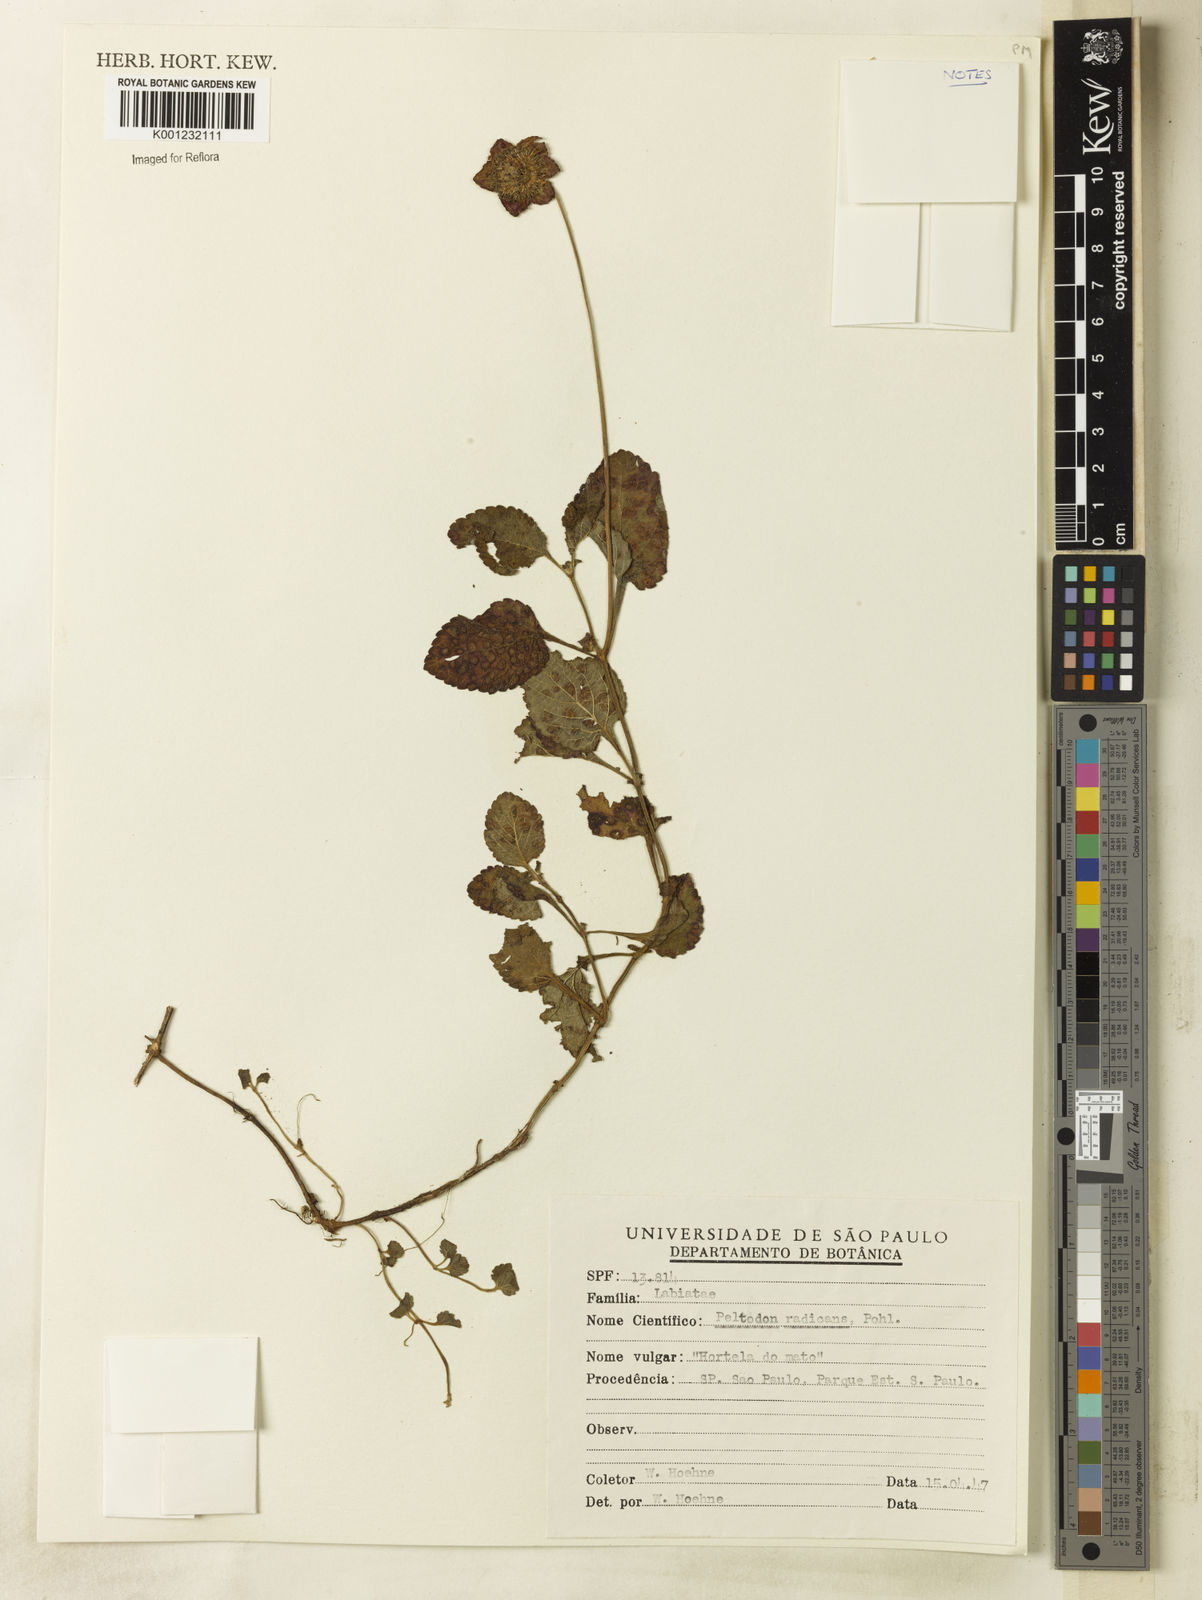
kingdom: Plantae
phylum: Tracheophyta
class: Magnoliopsida
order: Lamiales
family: Lamiaceae
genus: Hyptis
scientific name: Hyptis radicans
